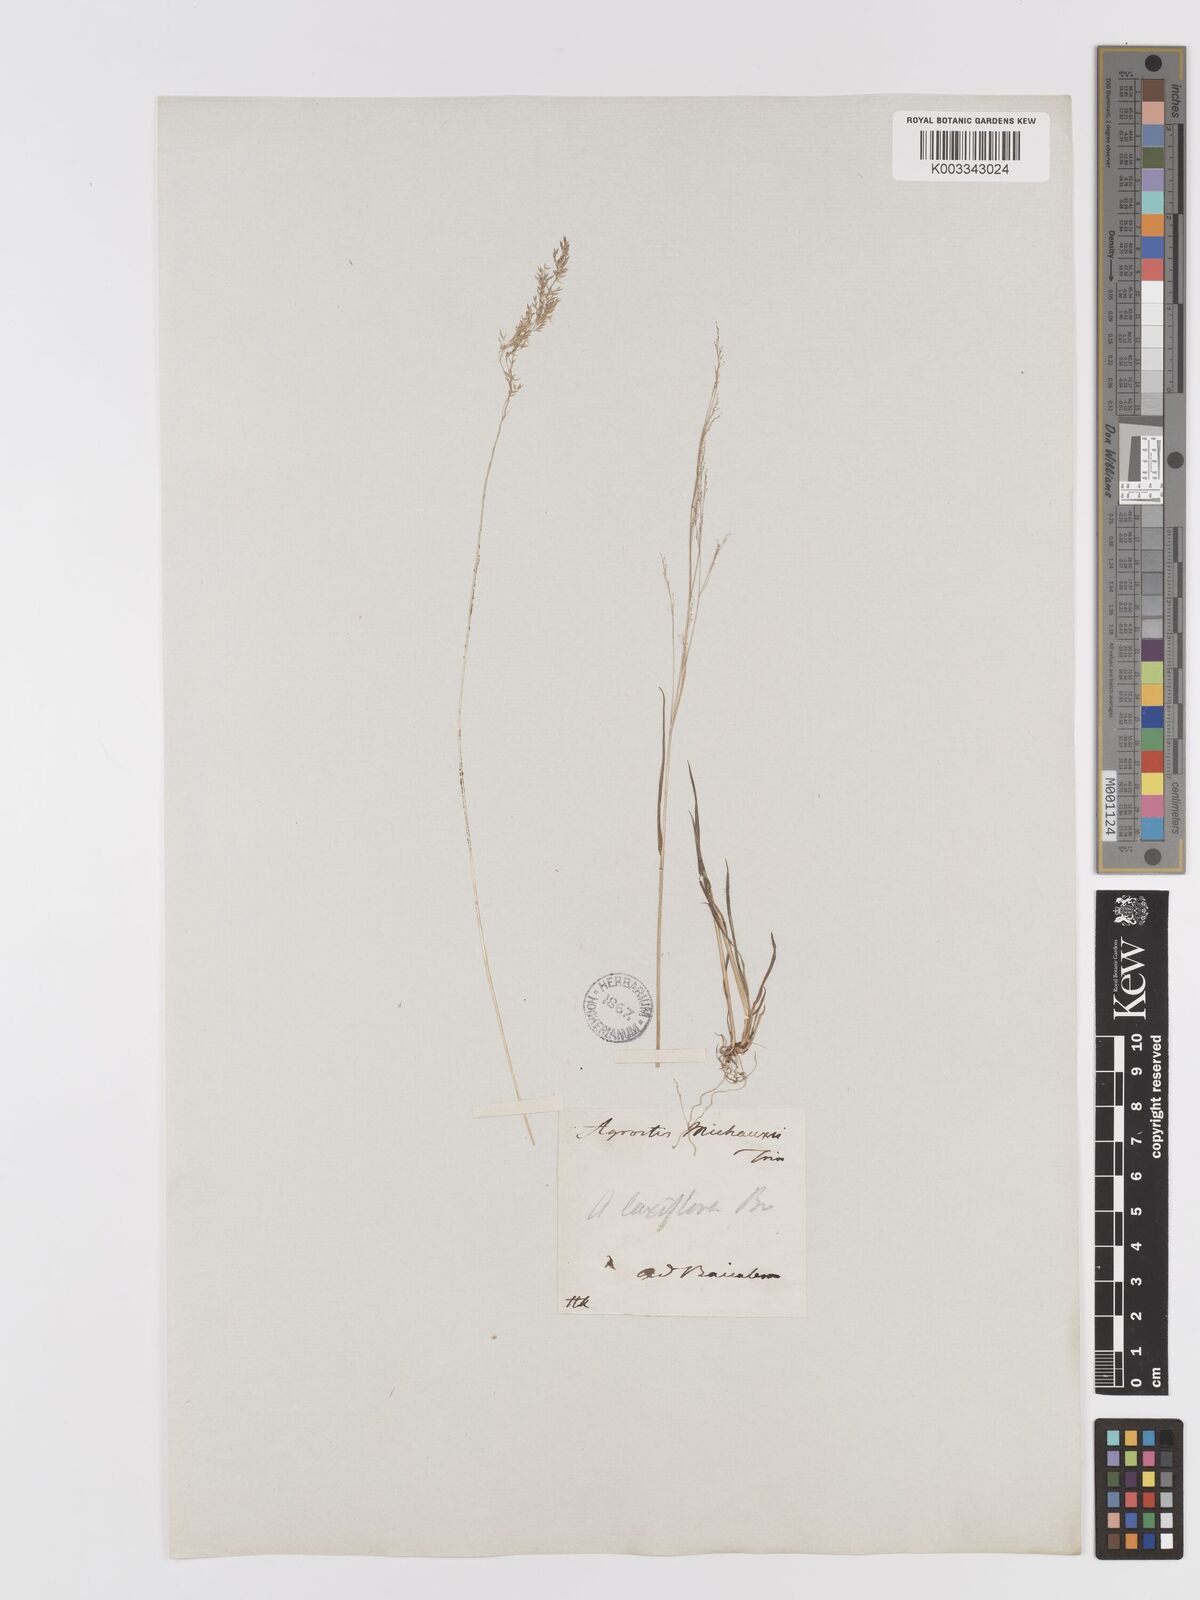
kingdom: Plantae
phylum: Tracheophyta
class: Liliopsida
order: Poales
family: Poaceae
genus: Agrostis
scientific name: Agrostis clavata
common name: Clavate bent
